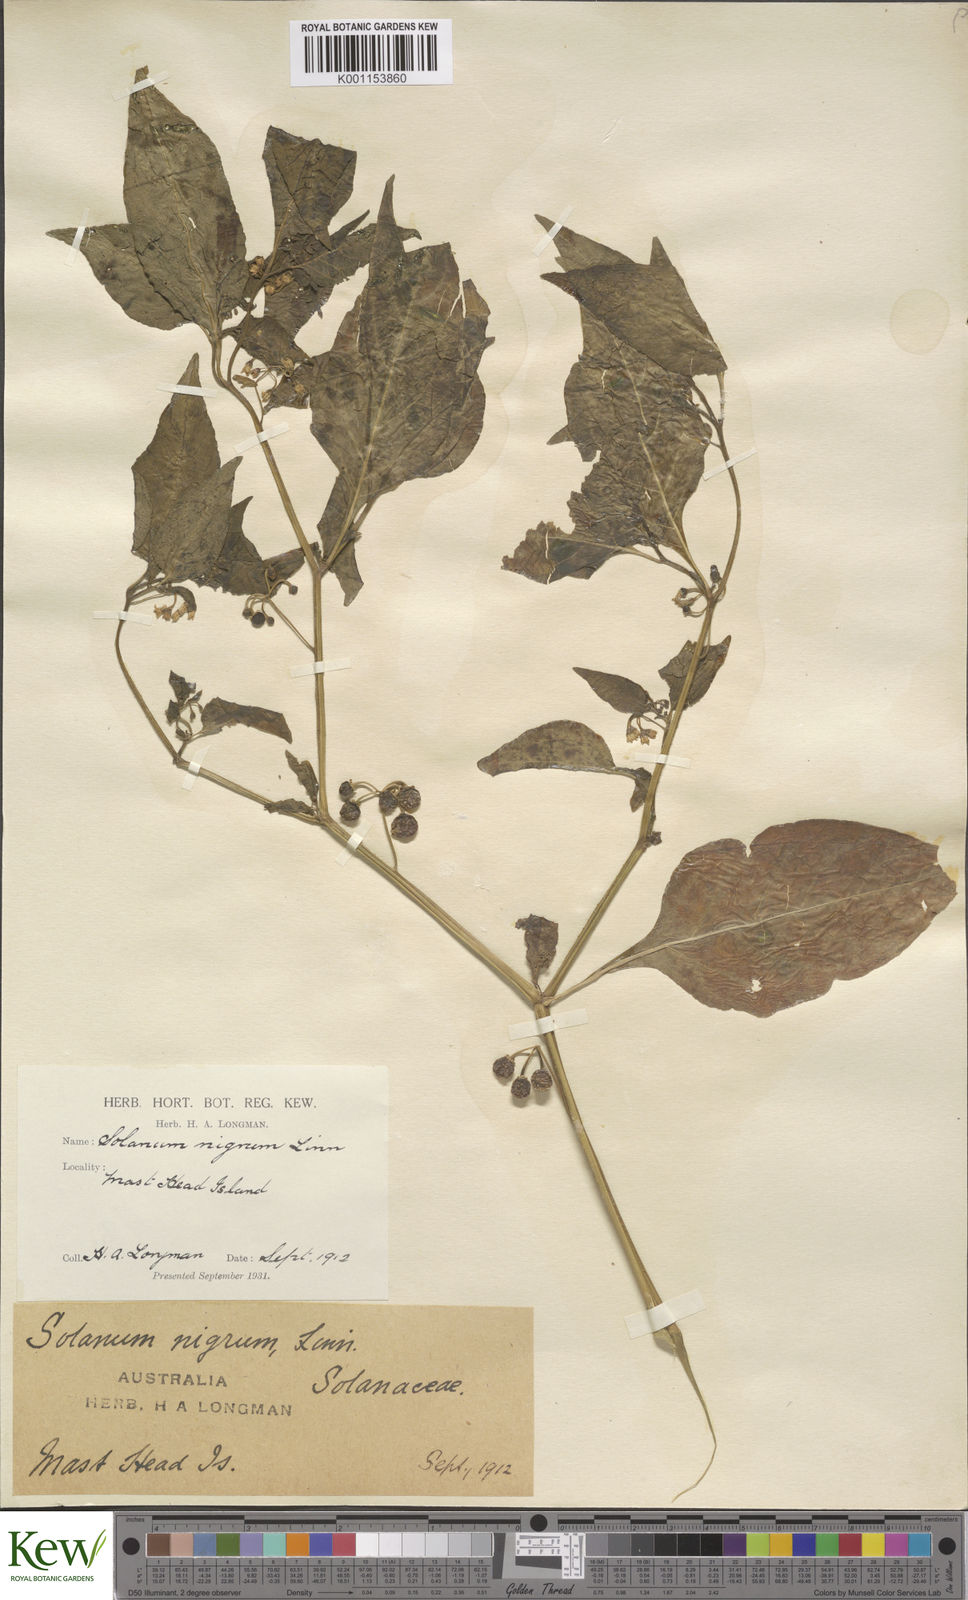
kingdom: Plantae
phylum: Tracheophyta
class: Magnoliopsida
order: Solanales
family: Solanaceae
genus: Solanum
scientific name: Solanum americanum
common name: American black nightshade
